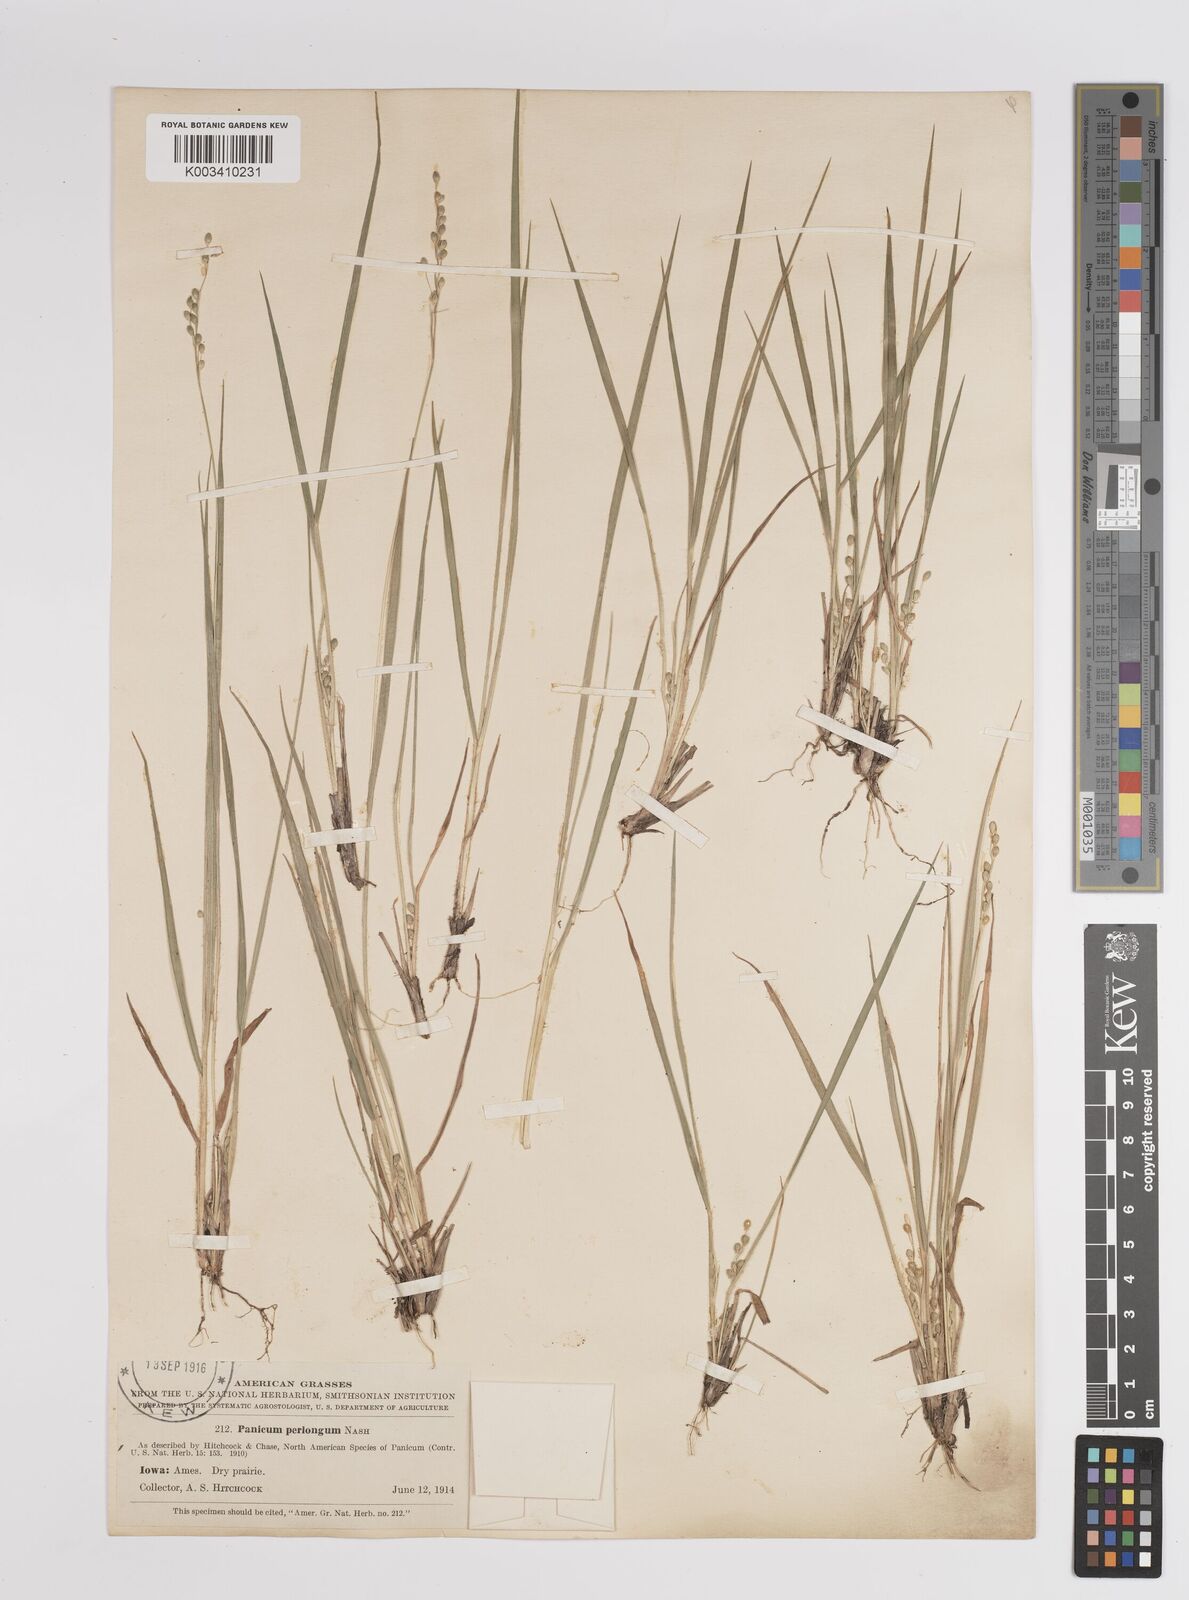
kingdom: Plantae
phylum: Tracheophyta
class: Liliopsida
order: Poales
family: Poaceae
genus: Dichanthelium
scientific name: Dichanthelium linearifolium
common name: Linear-leaved panicgrass
